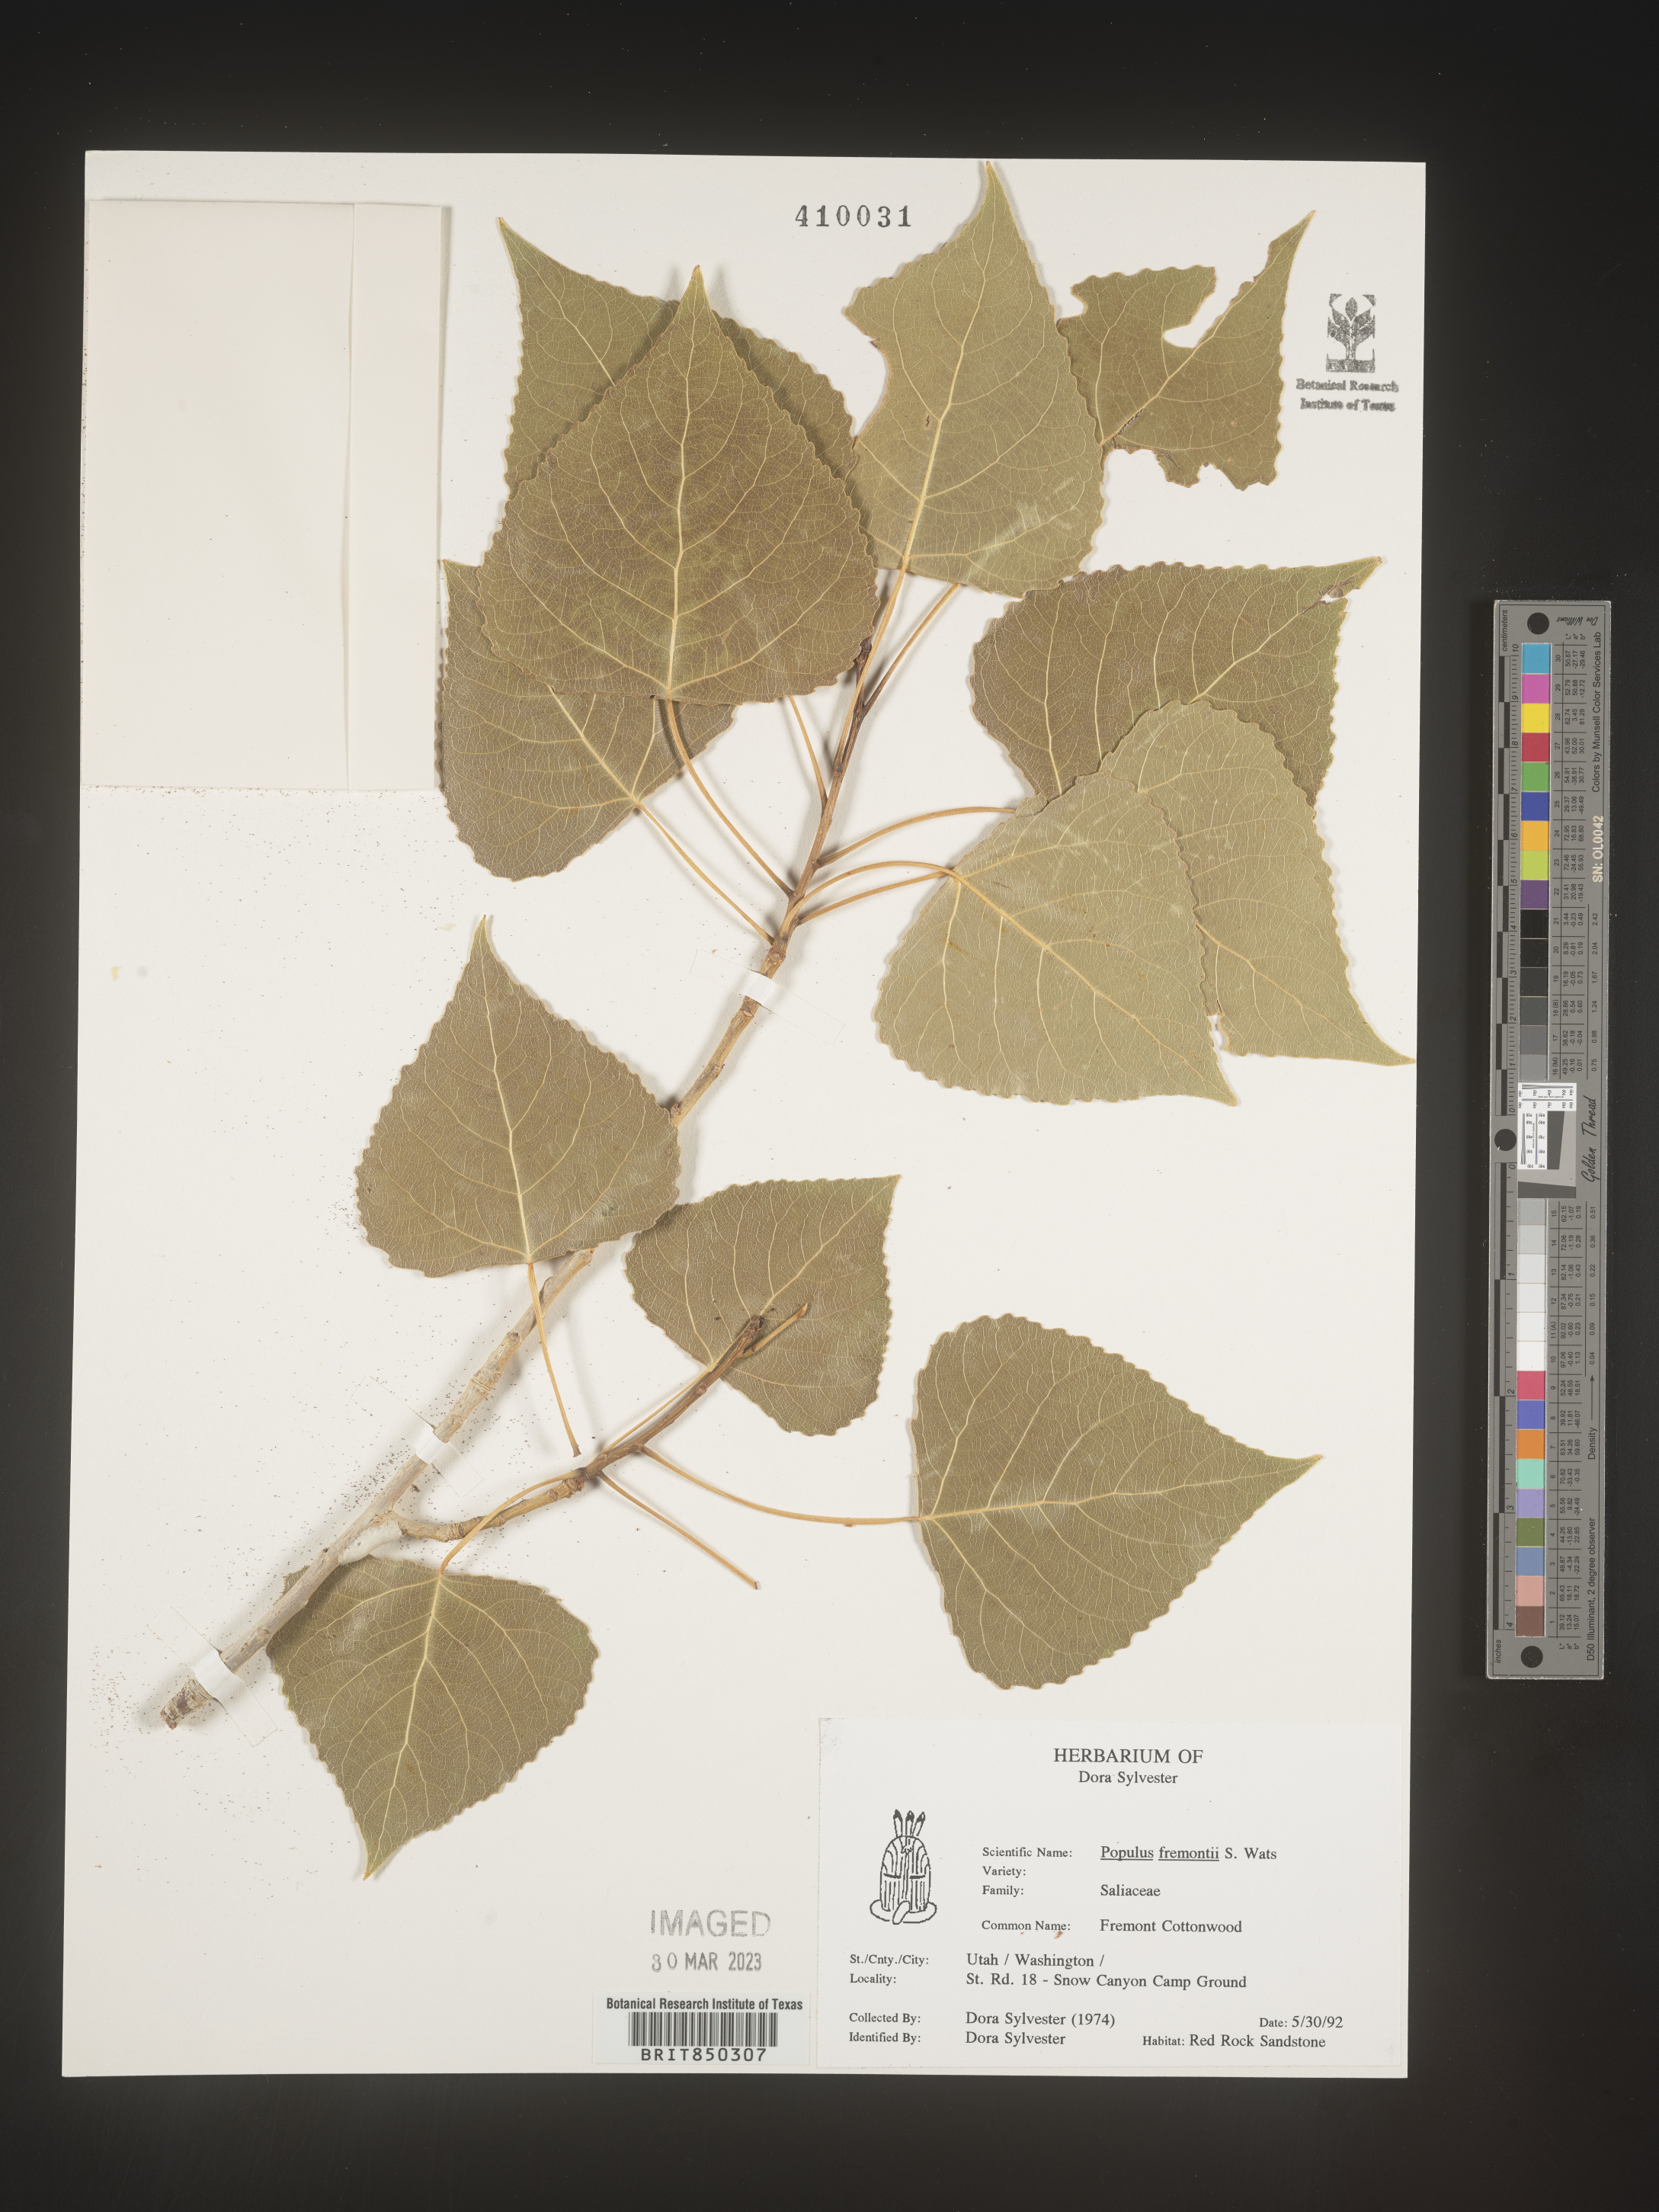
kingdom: Plantae
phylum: Tracheophyta
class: Magnoliopsida
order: Malpighiales
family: Salicaceae
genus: Populus
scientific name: Populus fremontii
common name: Fremont's cottonwood
